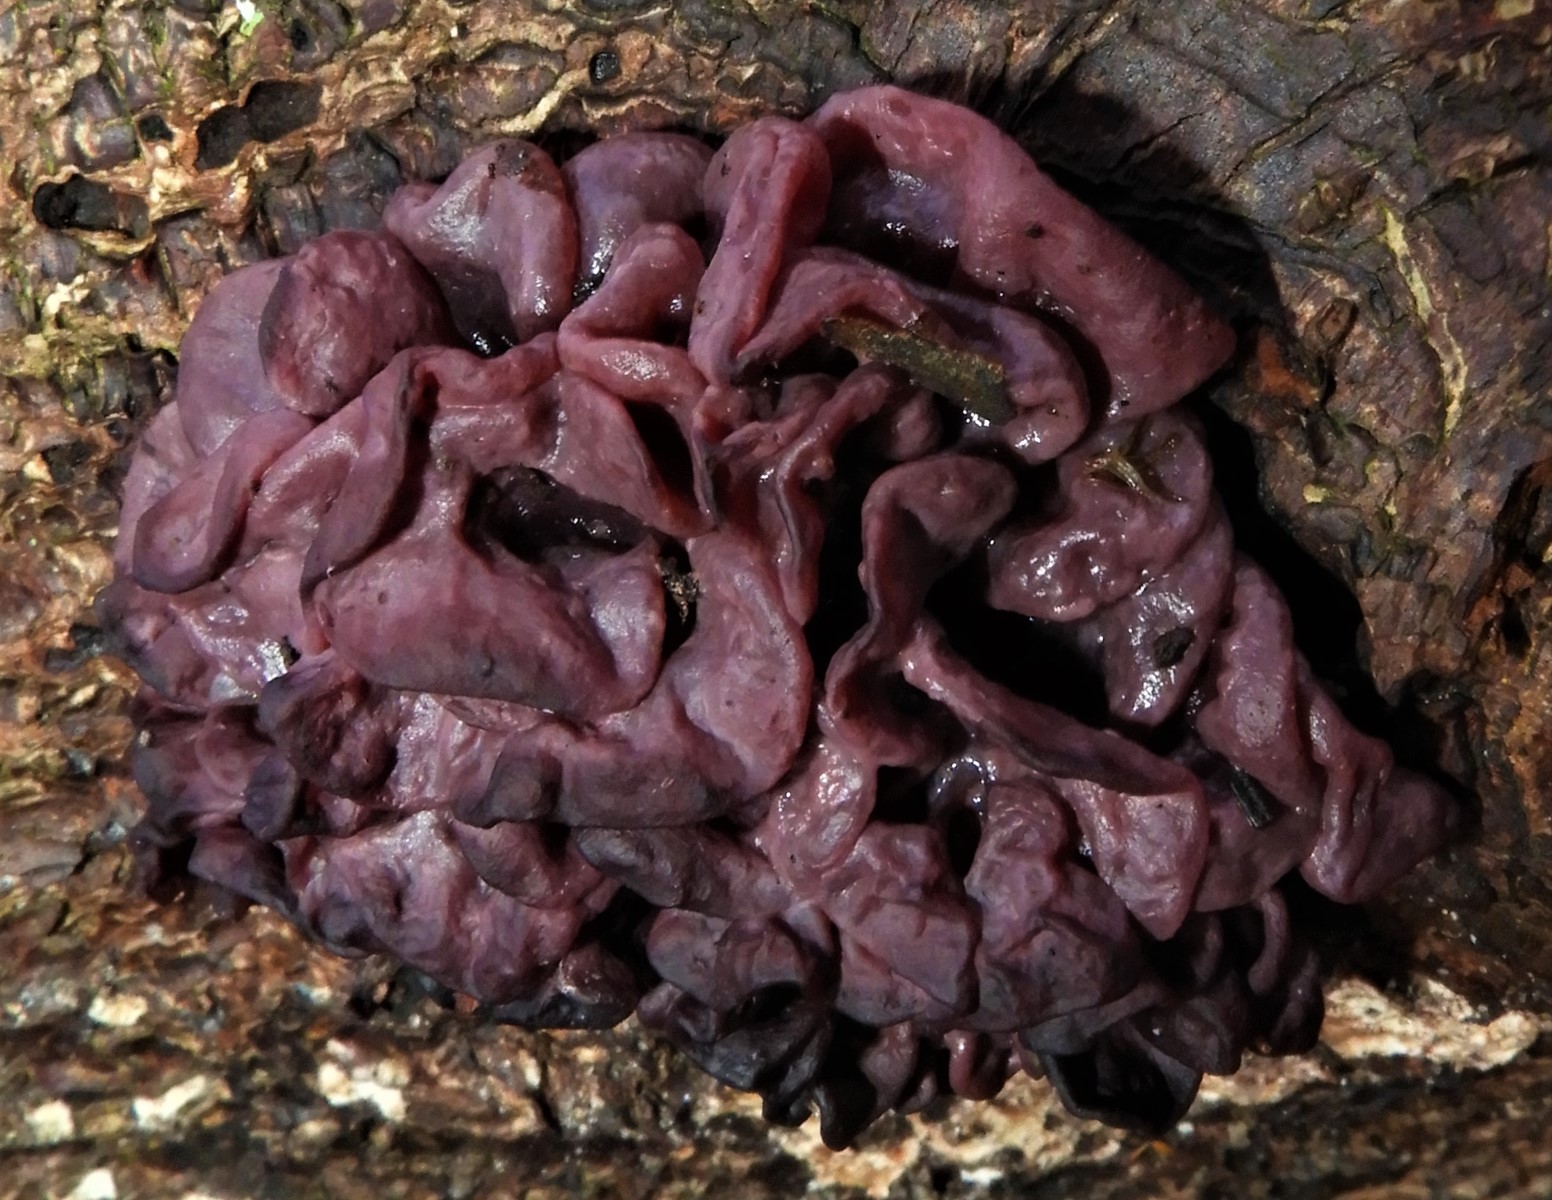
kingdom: Fungi
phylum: Ascomycota
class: Leotiomycetes
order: Helotiales
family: Gelatinodiscaceae
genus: Ascocoryne
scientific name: Ascocoryne sarcoides
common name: rødlilla sejskive
